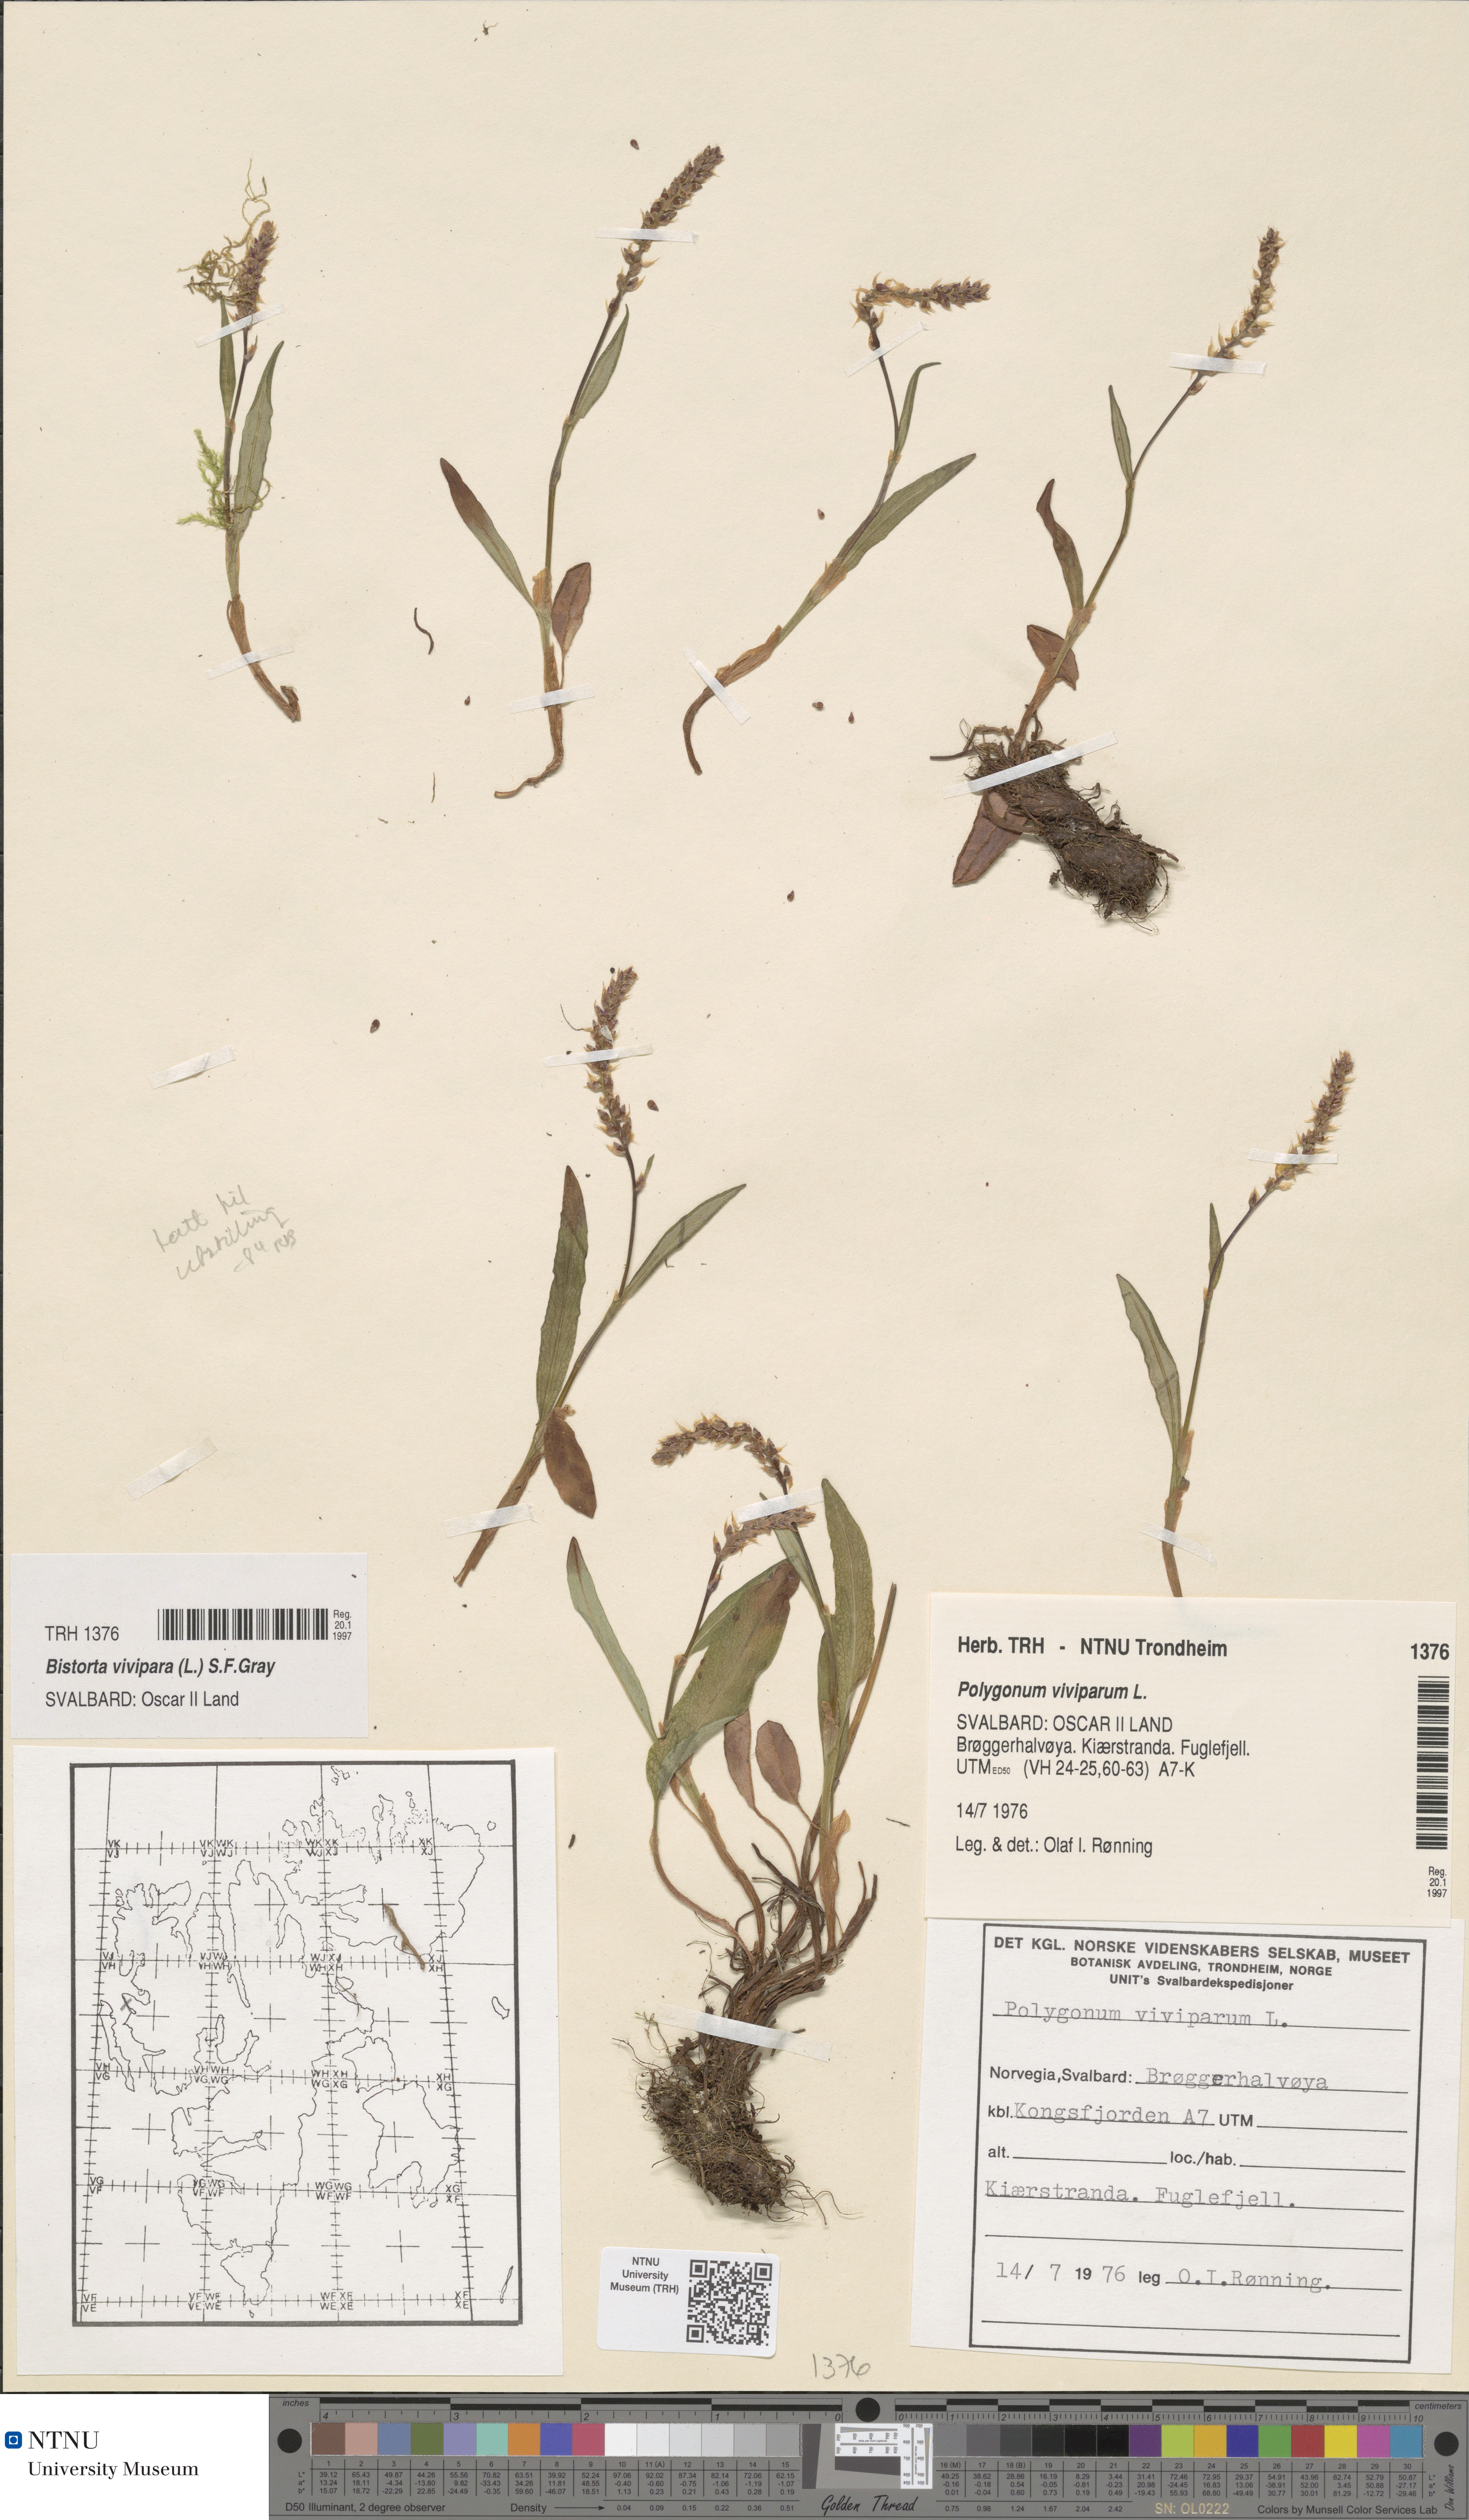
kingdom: Plantae
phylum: Tracheophyta
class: Magnoliopsida
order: Caryophyllales
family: Polygonaceae
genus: Bistorta
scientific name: Bistorta vivipara
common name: Alpine bistort
